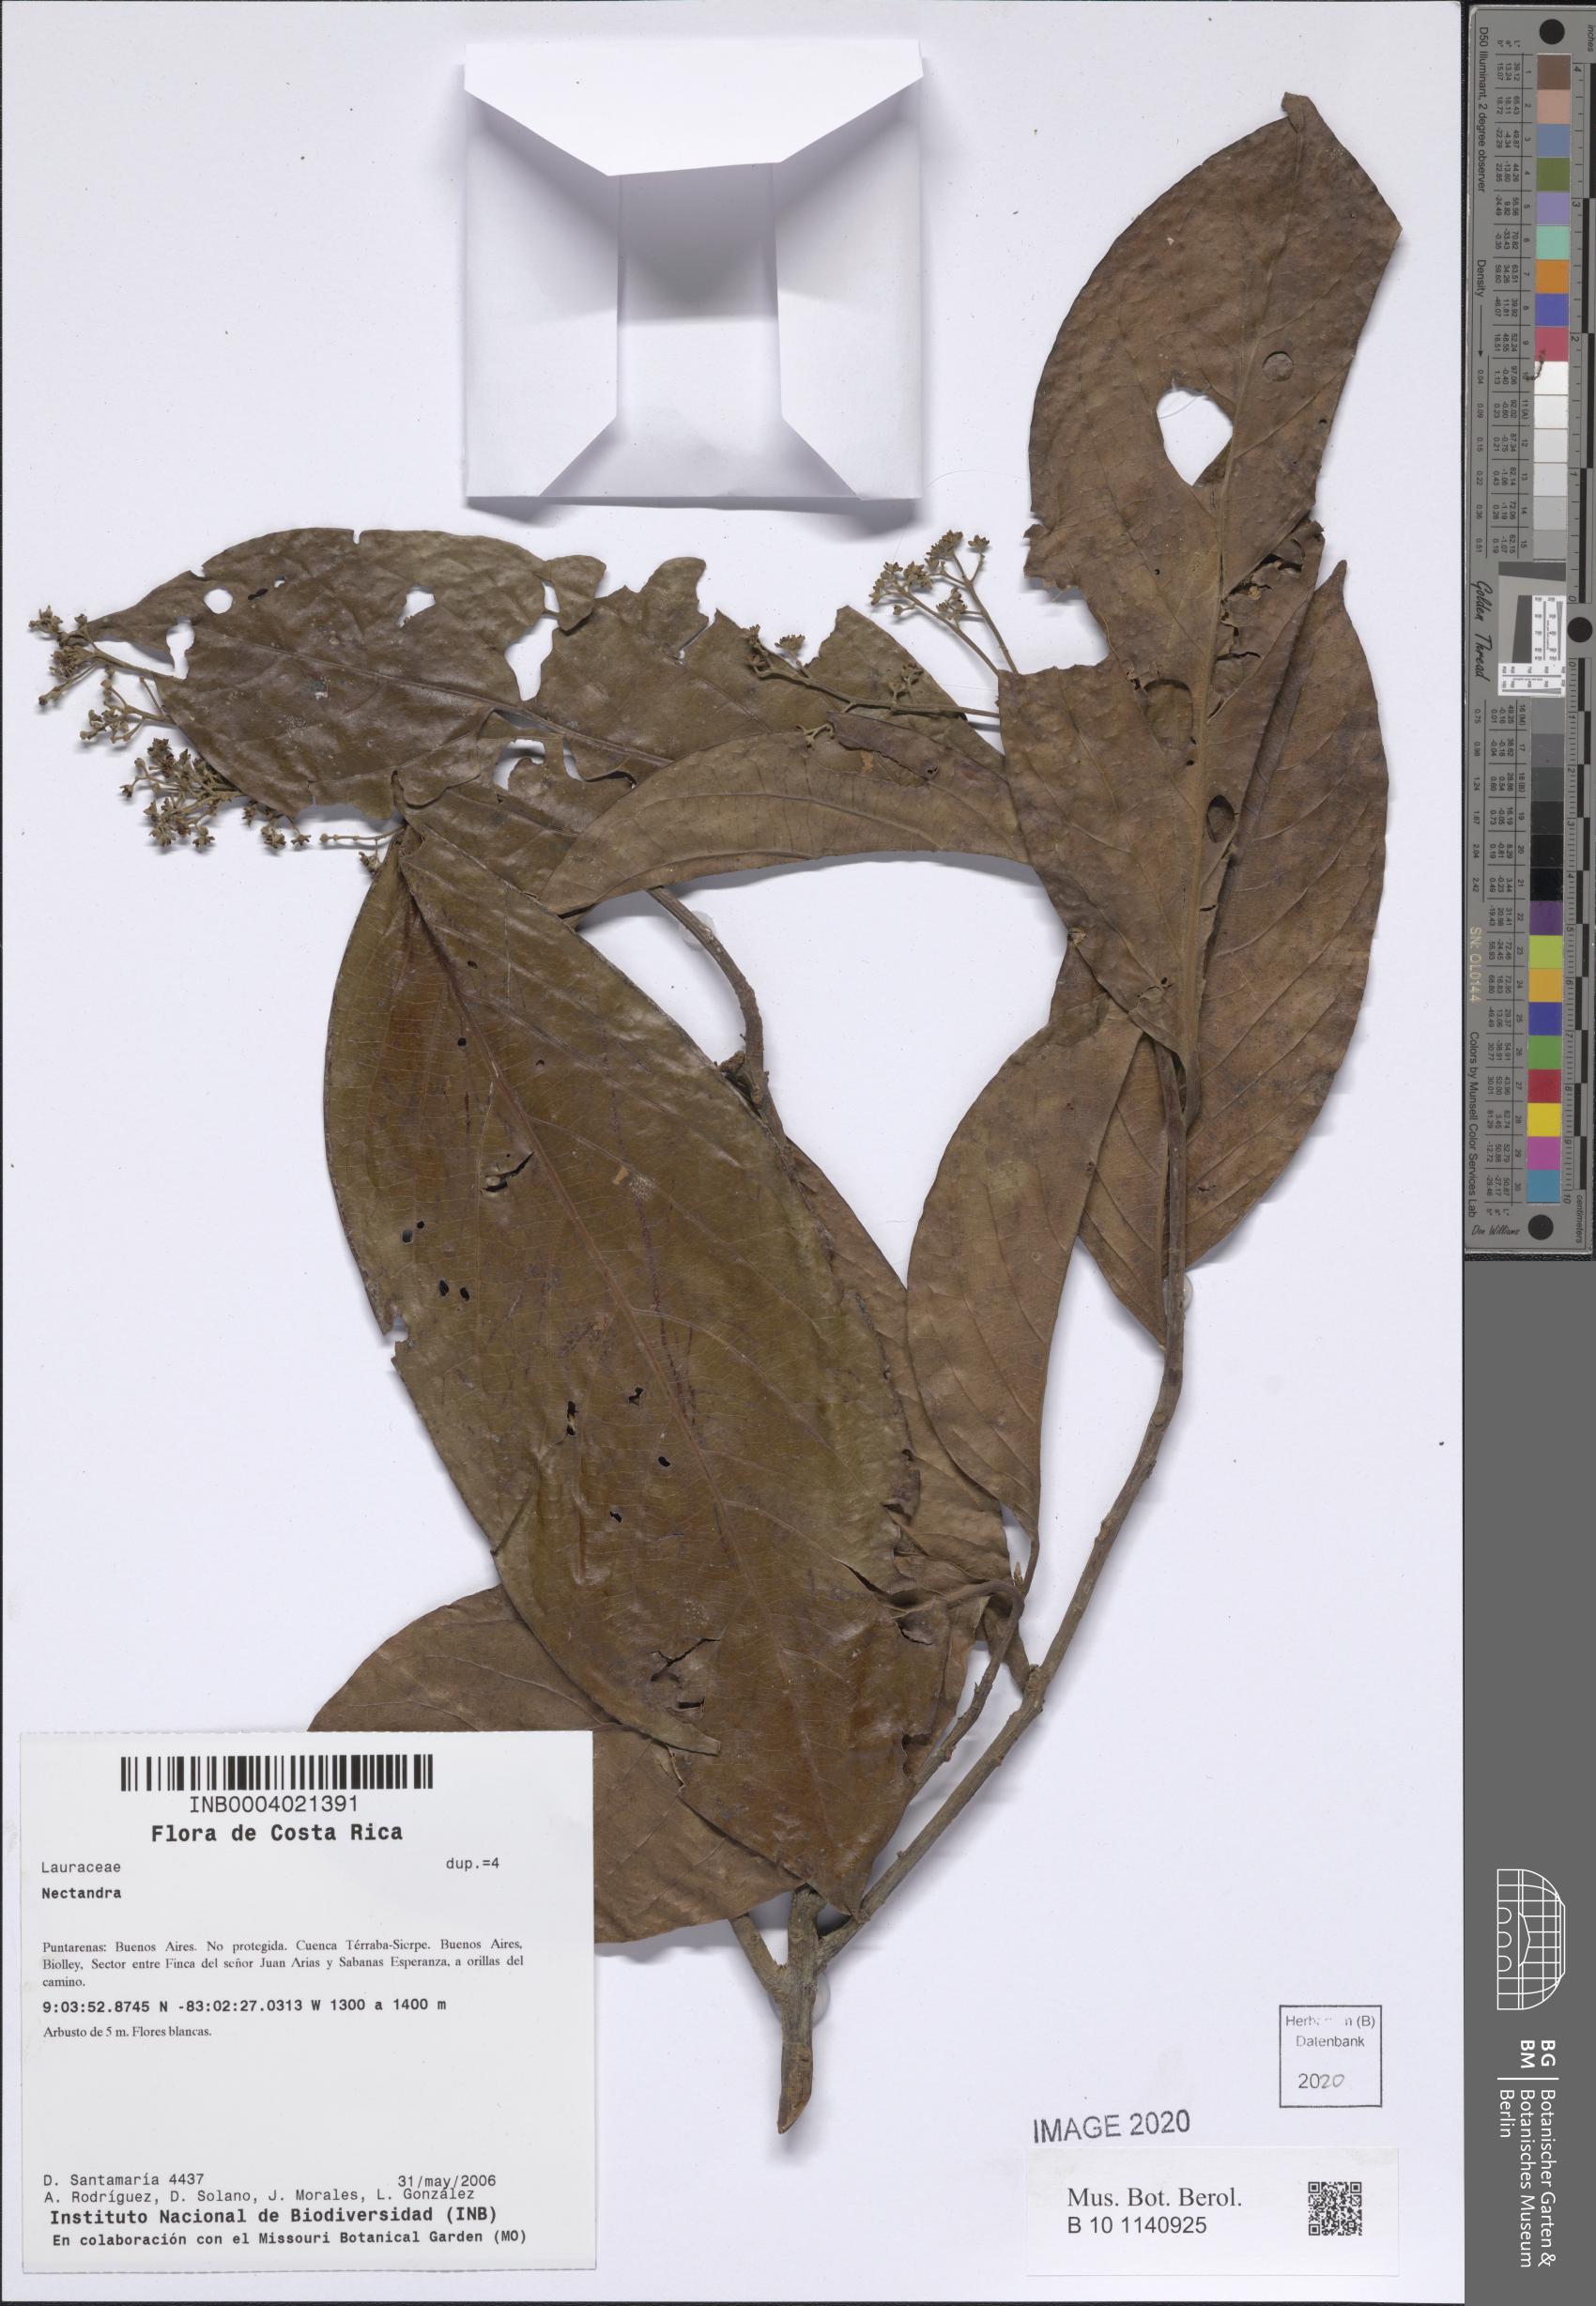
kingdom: Plantae
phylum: Tracheophyta
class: Magnoliopsida
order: Laurales
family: Lauraceae
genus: Nectandra
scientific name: Nectandra
